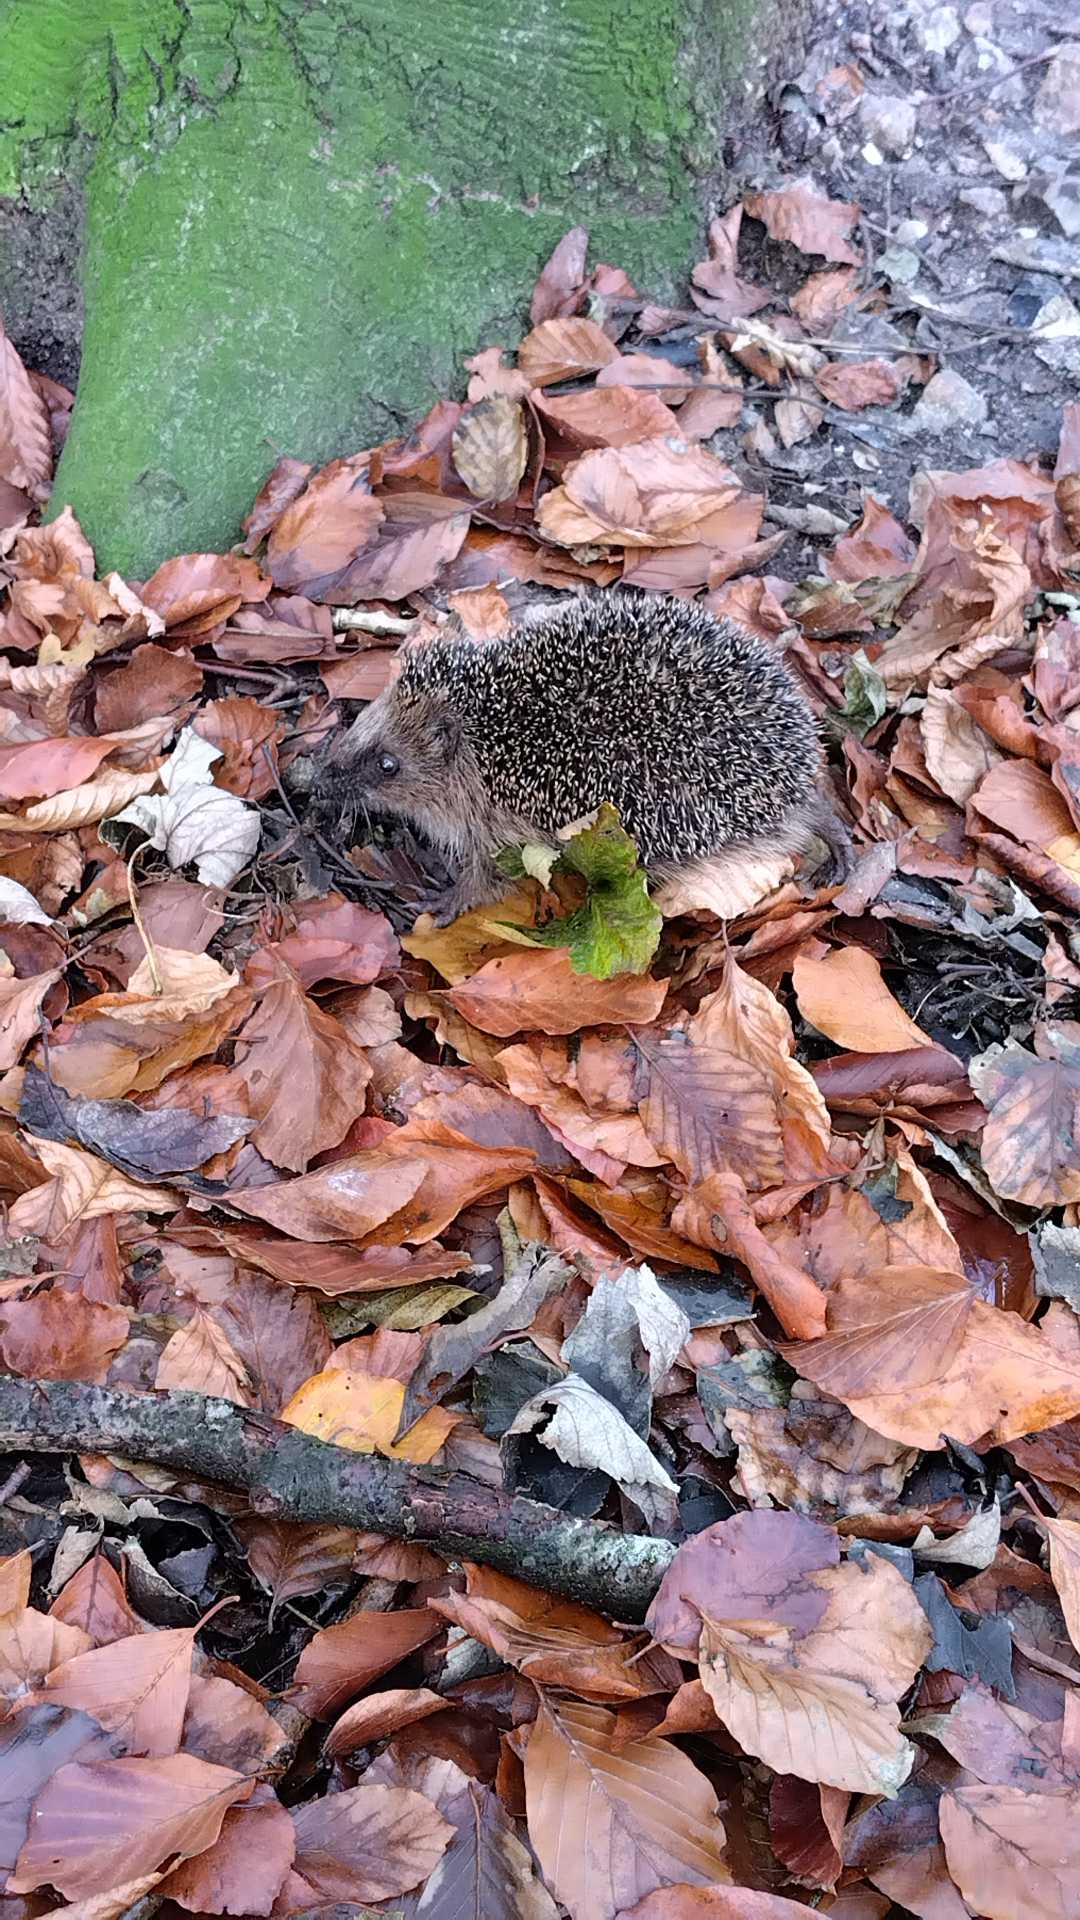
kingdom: Animalia
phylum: Chordata
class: Mammalia
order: Erinaceomorpha
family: Erinaceidae
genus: Erinaceus
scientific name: Erinaceus europaeus
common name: Pindsvin
